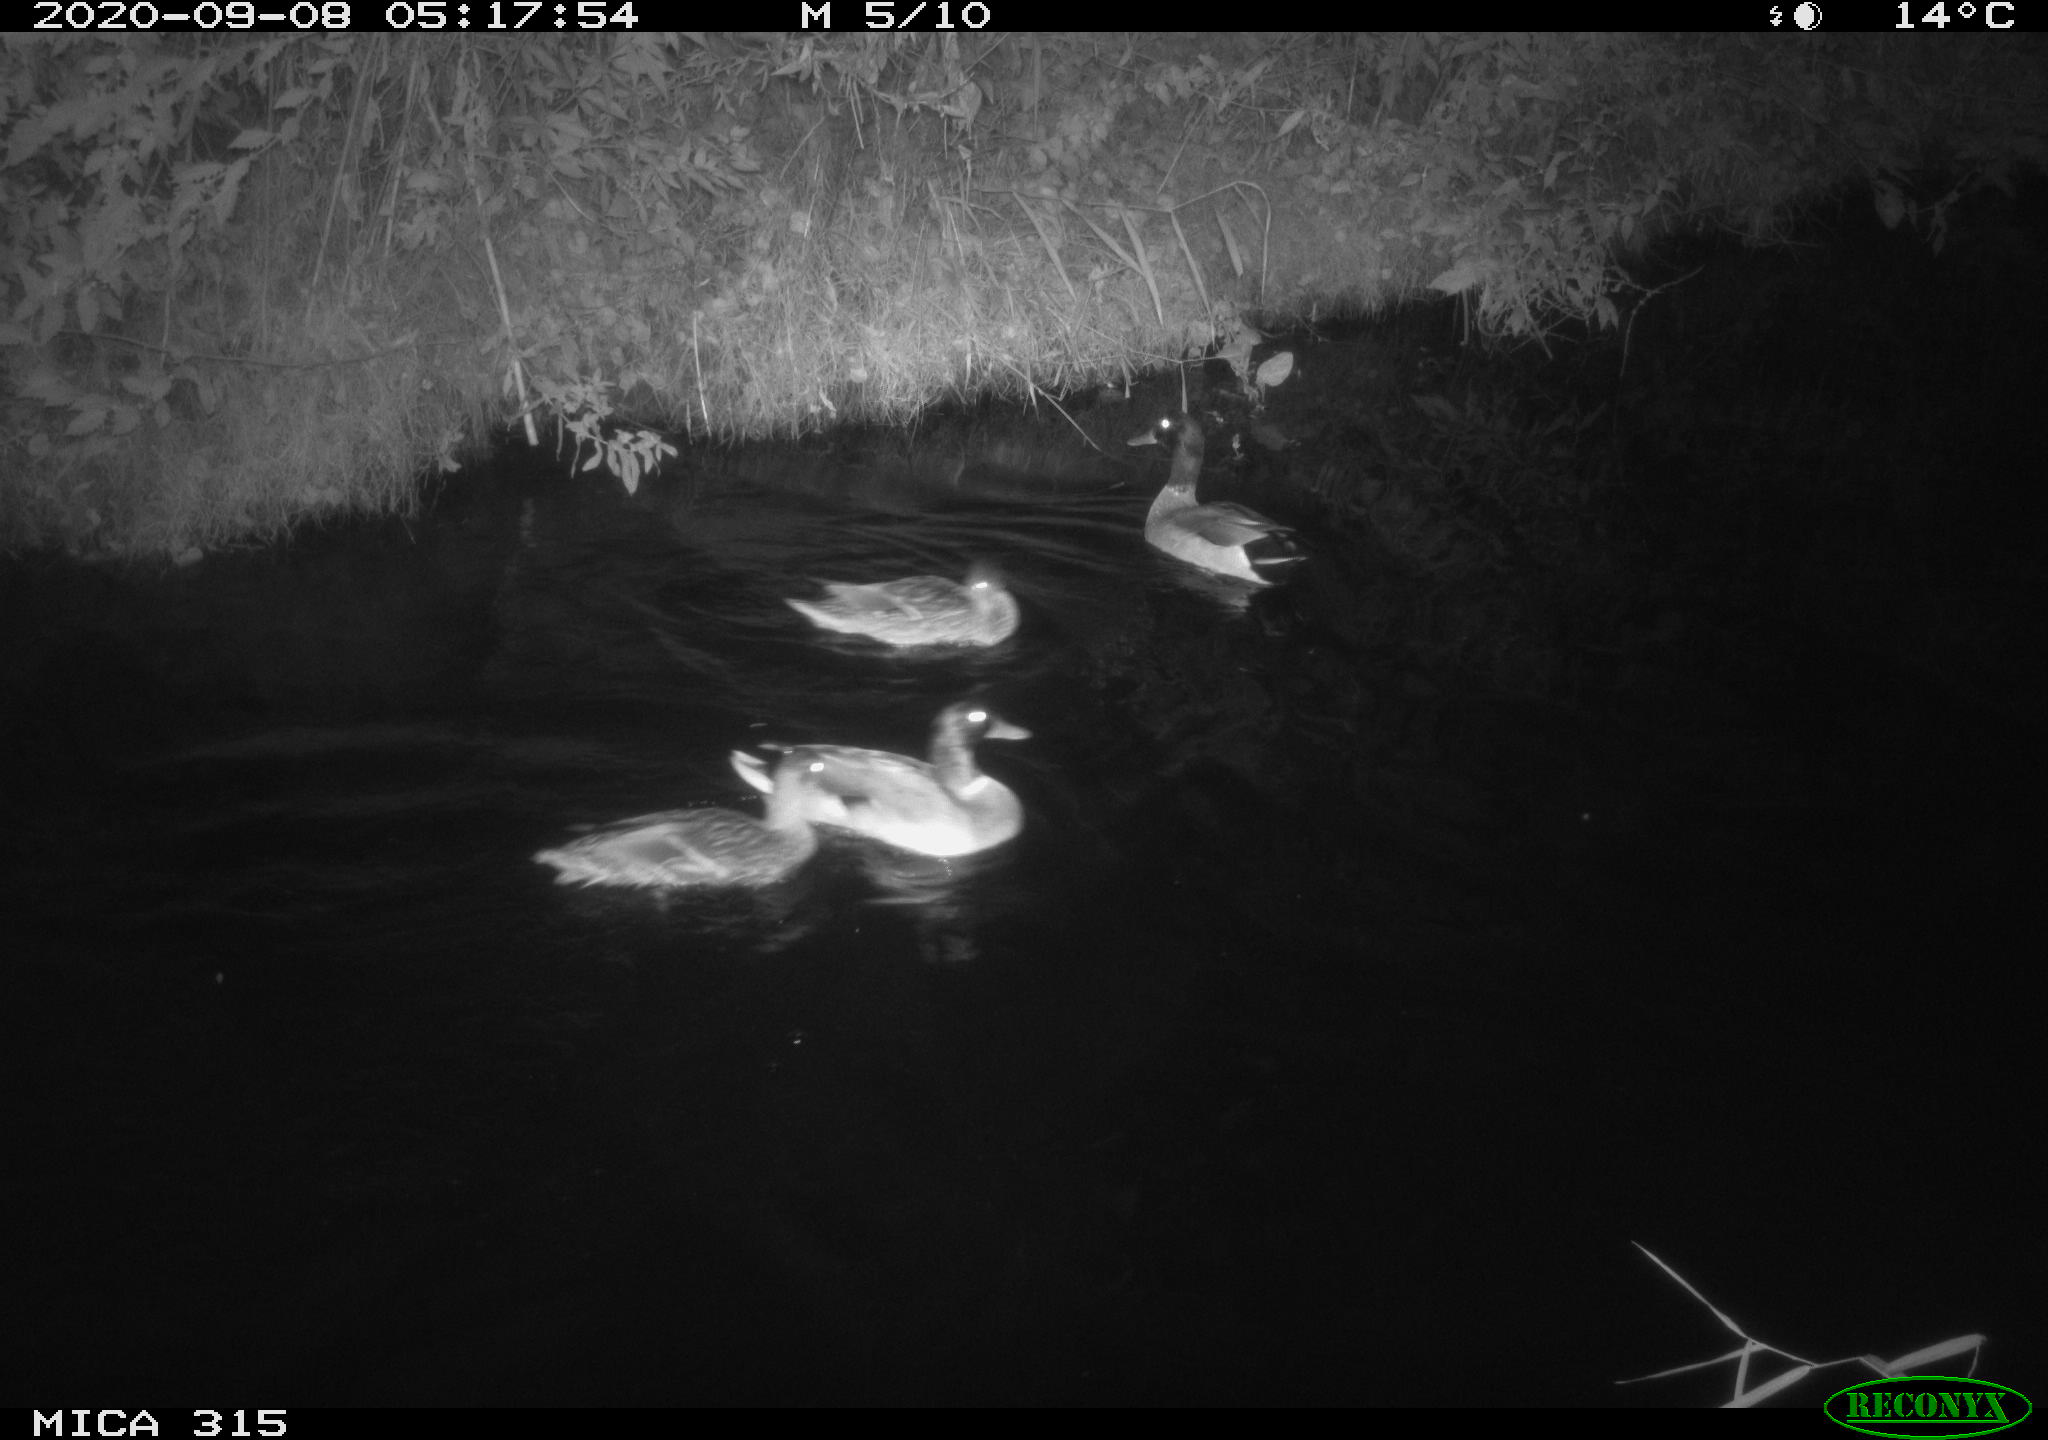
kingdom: Animalia
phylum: Chordata
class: Aves
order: Anseriformes
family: Anatidae
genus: Anas
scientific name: Anas platyrhynchos
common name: Mallard
